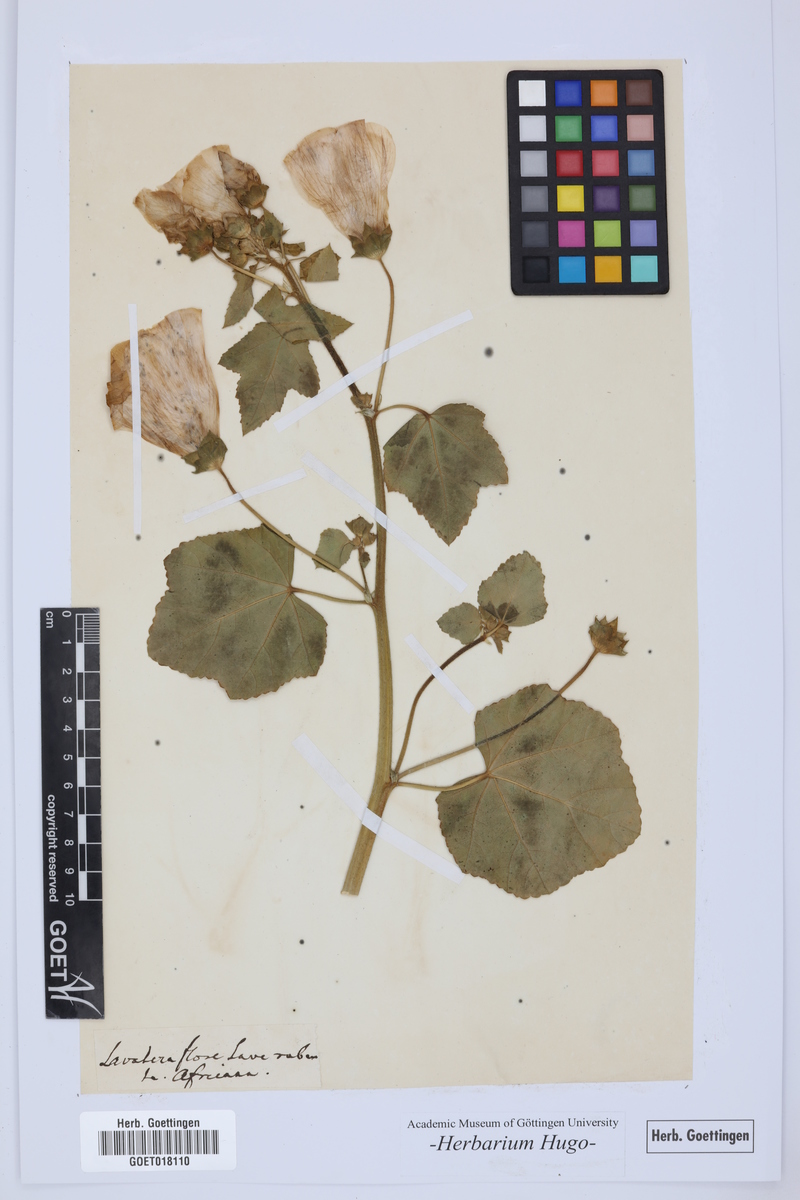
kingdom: Plantae
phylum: Tracheophyta
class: Magnoliopsida
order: Malvales
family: Malvaceae
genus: Malva
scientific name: Malva
